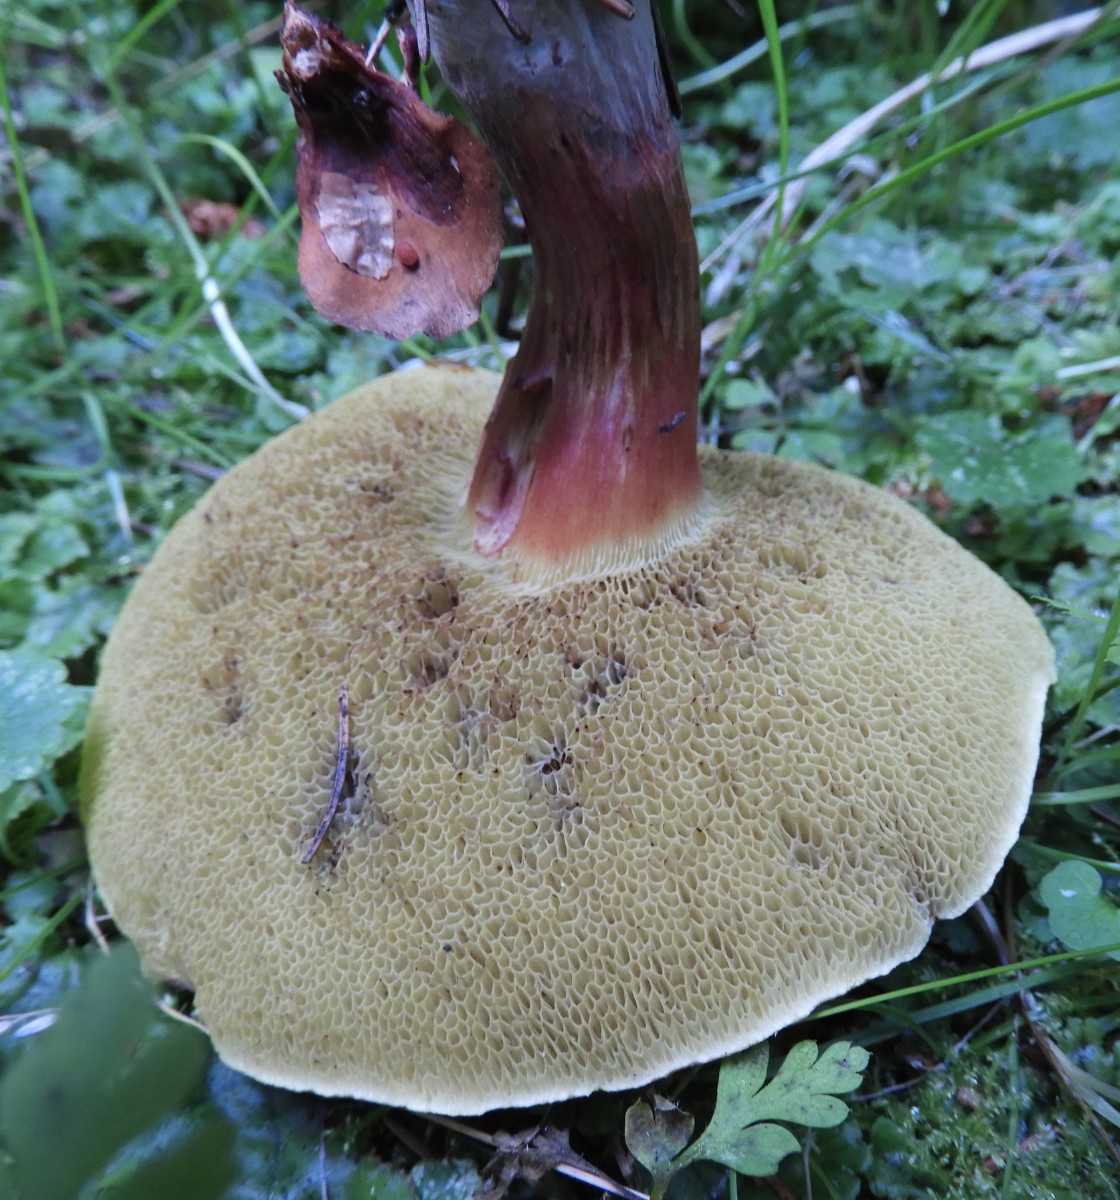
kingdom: Fungi
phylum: Basidiomycota
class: Agaricomycetes
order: Boletales
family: Boletaceae
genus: Xerocomellus
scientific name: Xerocomellus chrysenteron
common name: rødsprukken rørhat
